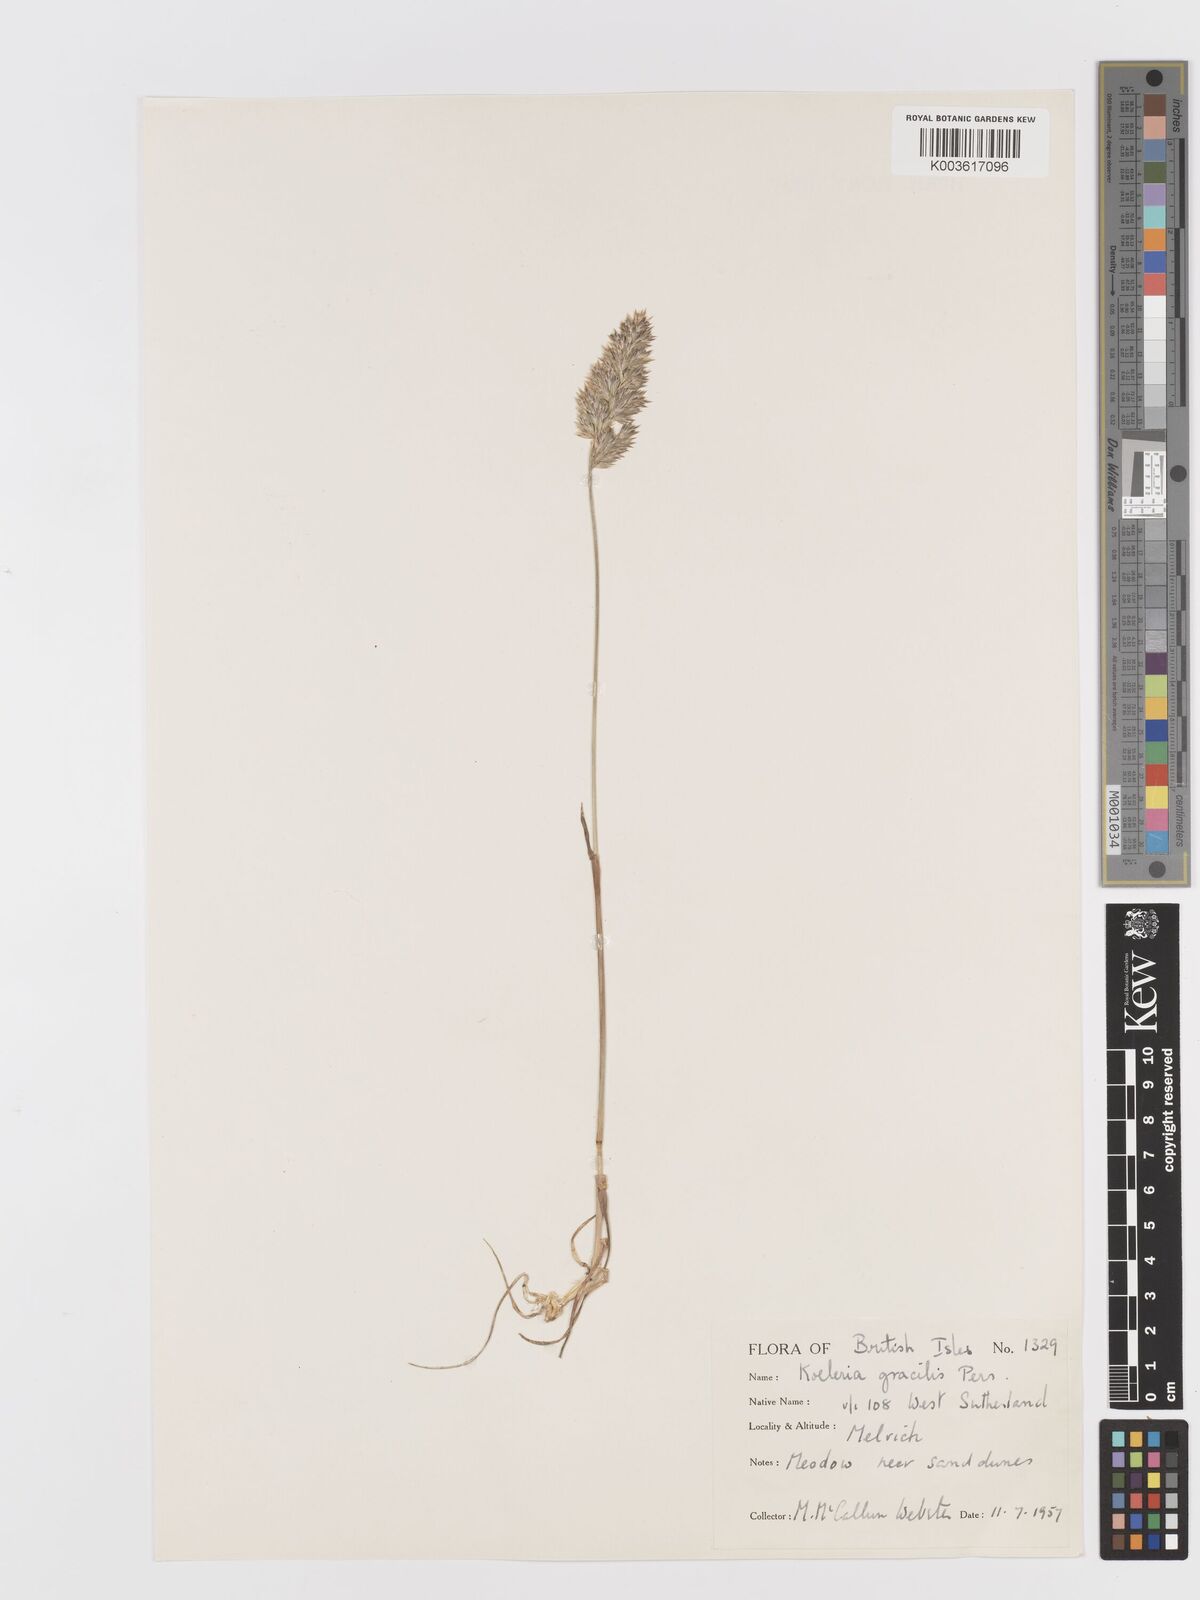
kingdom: Plantae
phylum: Tracheophyta
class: Liliopsida
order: Poales
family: Poaceae
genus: Koeleria
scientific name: Koeleria macrantha
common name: Crested hair-grass
